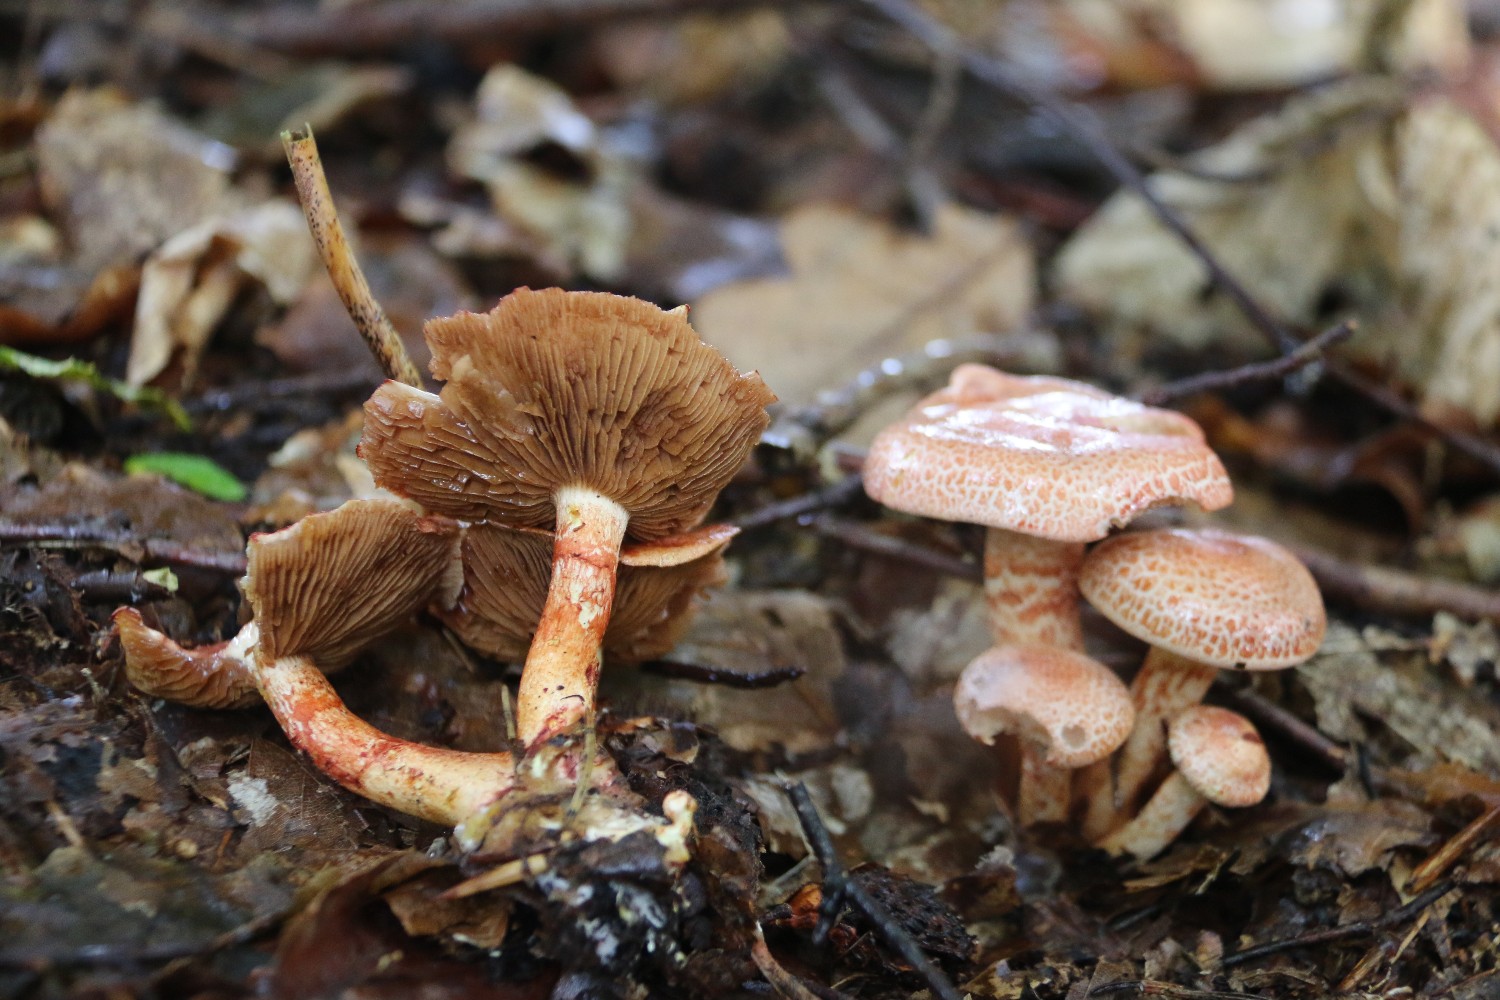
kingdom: Fungi
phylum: Basidiomycota
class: Agaricomycetes
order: Agaricales
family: Cortinariaceae
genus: Cortinarius
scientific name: Cortinarius bolaris
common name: cinnoberskællet slørhat
